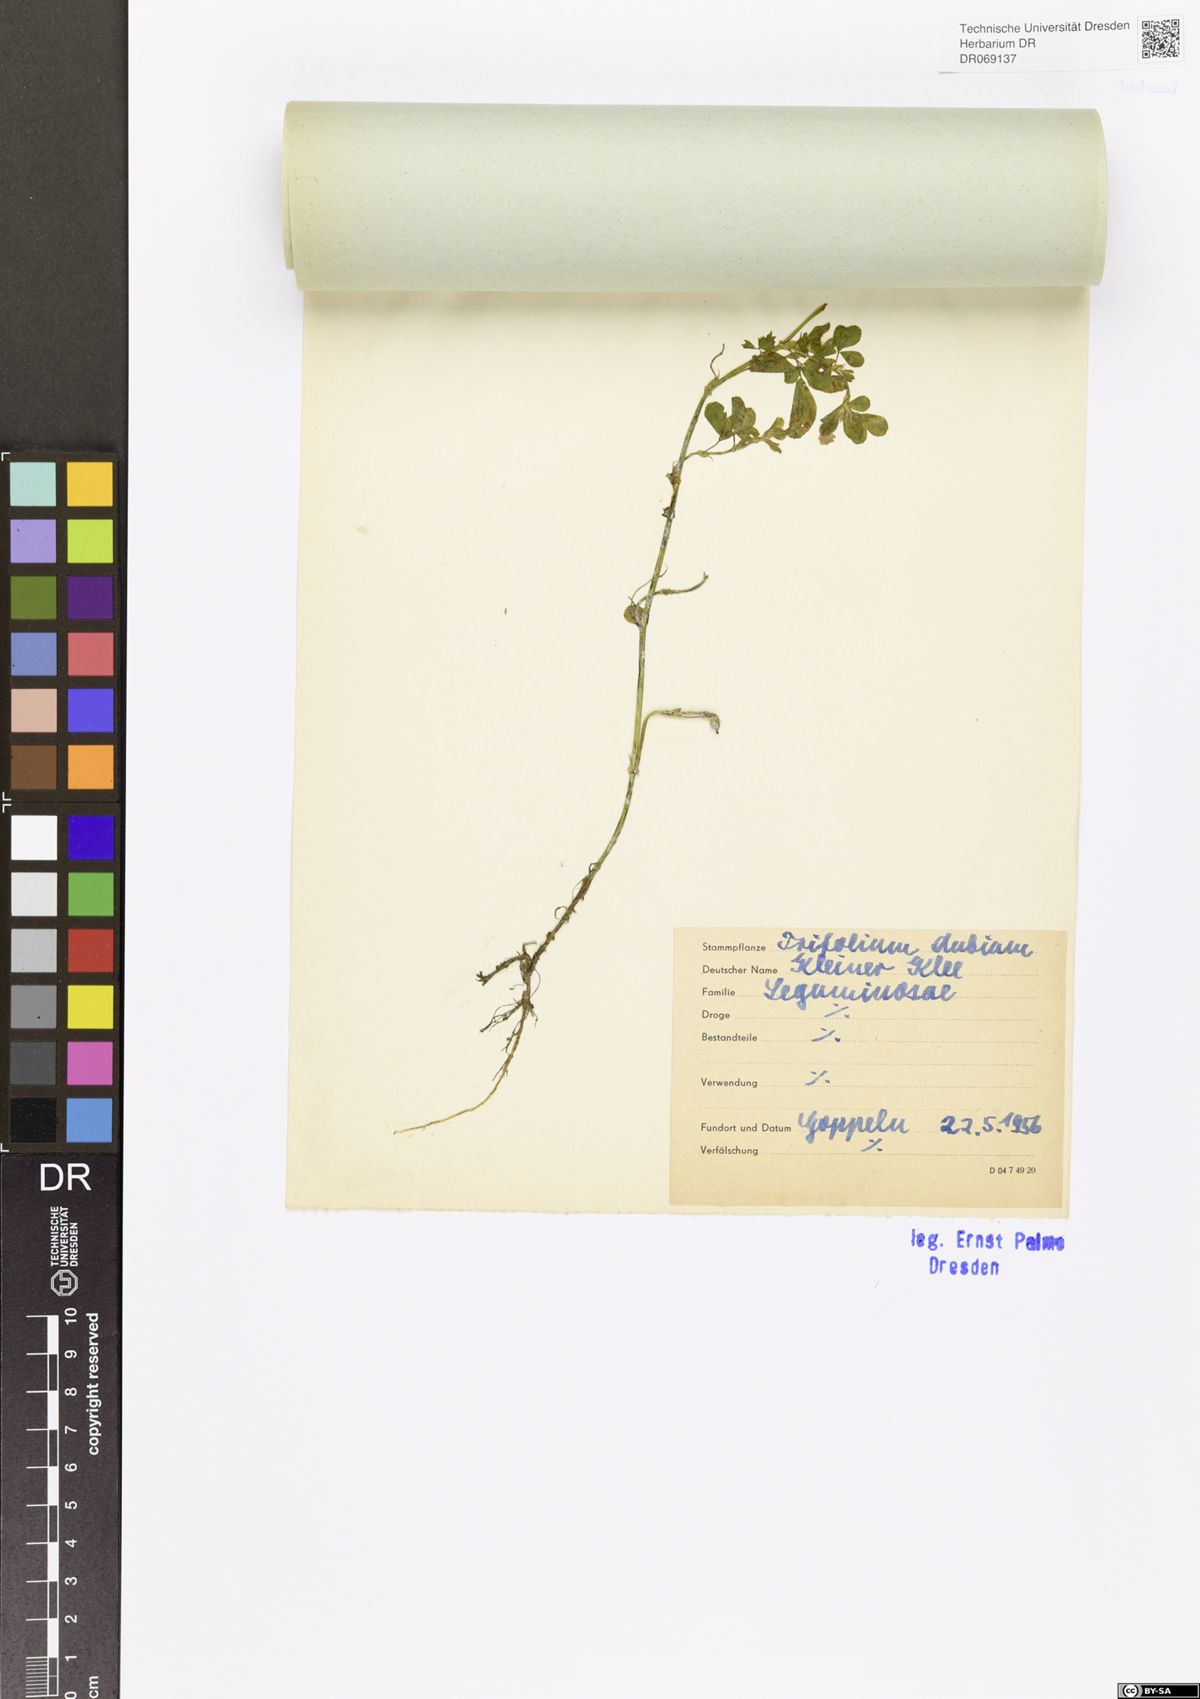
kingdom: Plantae
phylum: Tracheophyta
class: Magnoliopsida
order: Fabales
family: Fabaceae
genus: Trifolium
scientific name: Trifolium dubium
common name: Suckling clover
